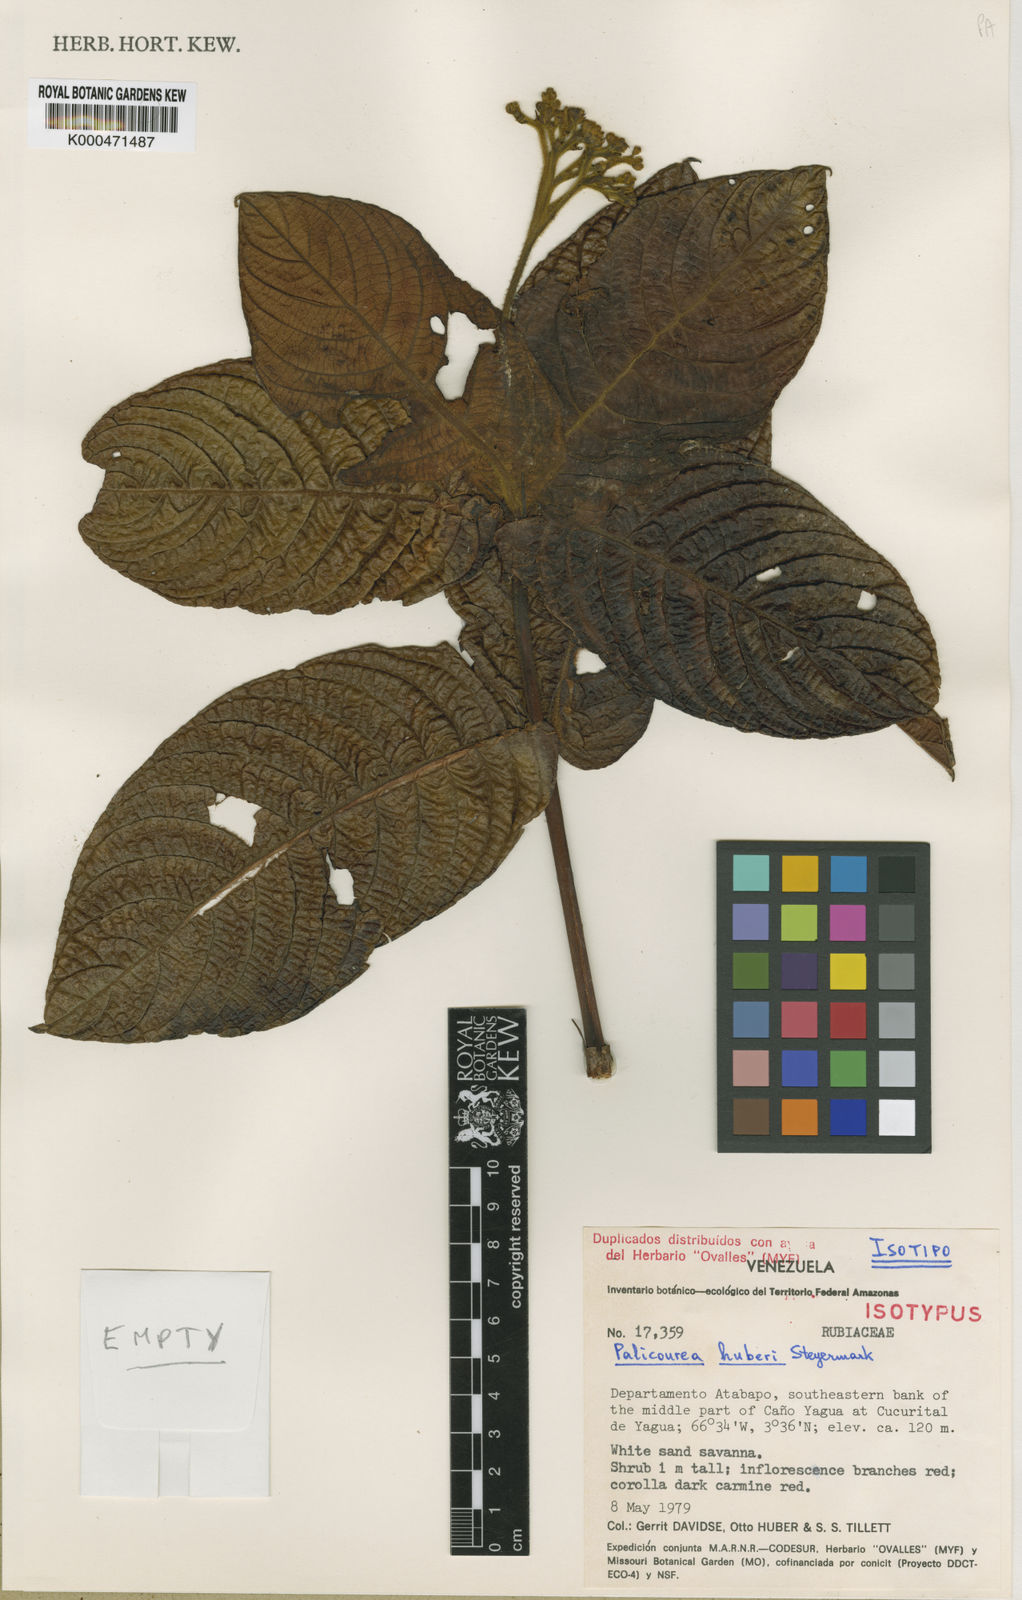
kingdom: Plantae
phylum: Tracheophyta
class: Magnoliopsida
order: Gentianales
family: Rubiaceae
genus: Palicourea
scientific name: Palicourea huberi
